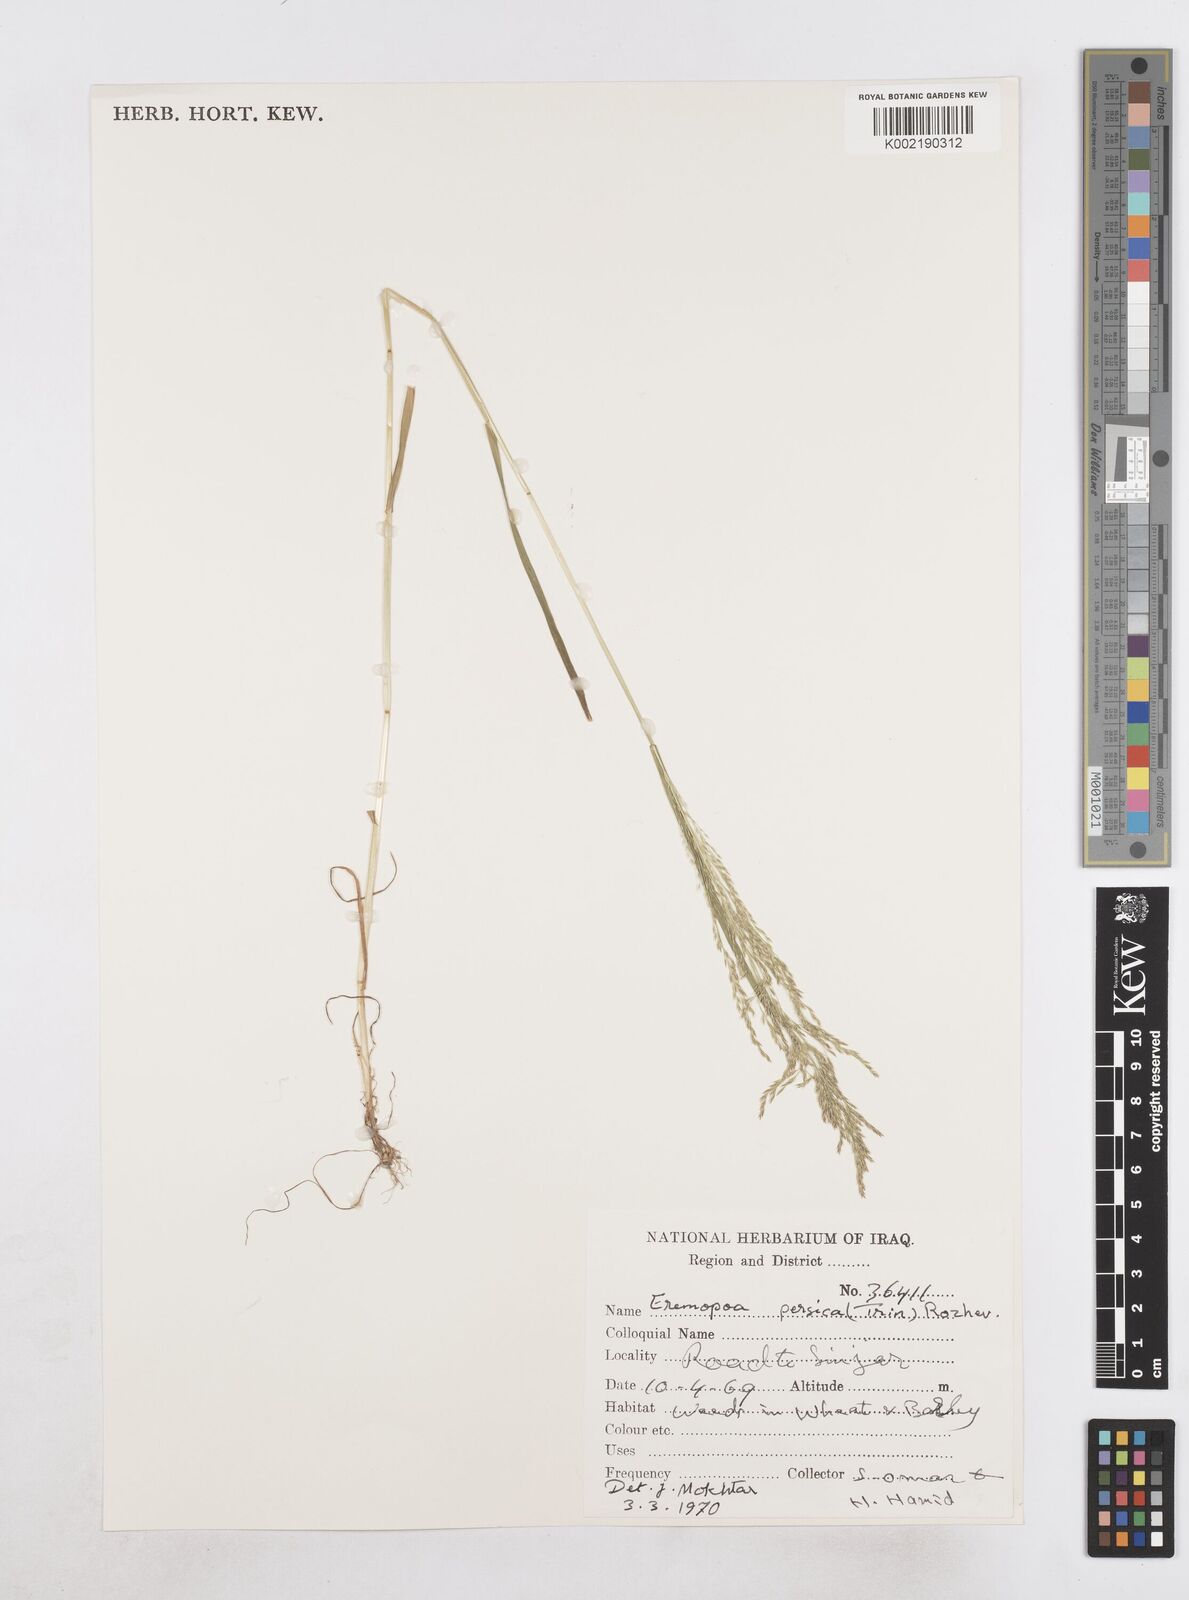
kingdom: Plantae
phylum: Tracheophyta
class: Liliopsida
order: Poales
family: Poaceae
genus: Poa
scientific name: Poa persica
